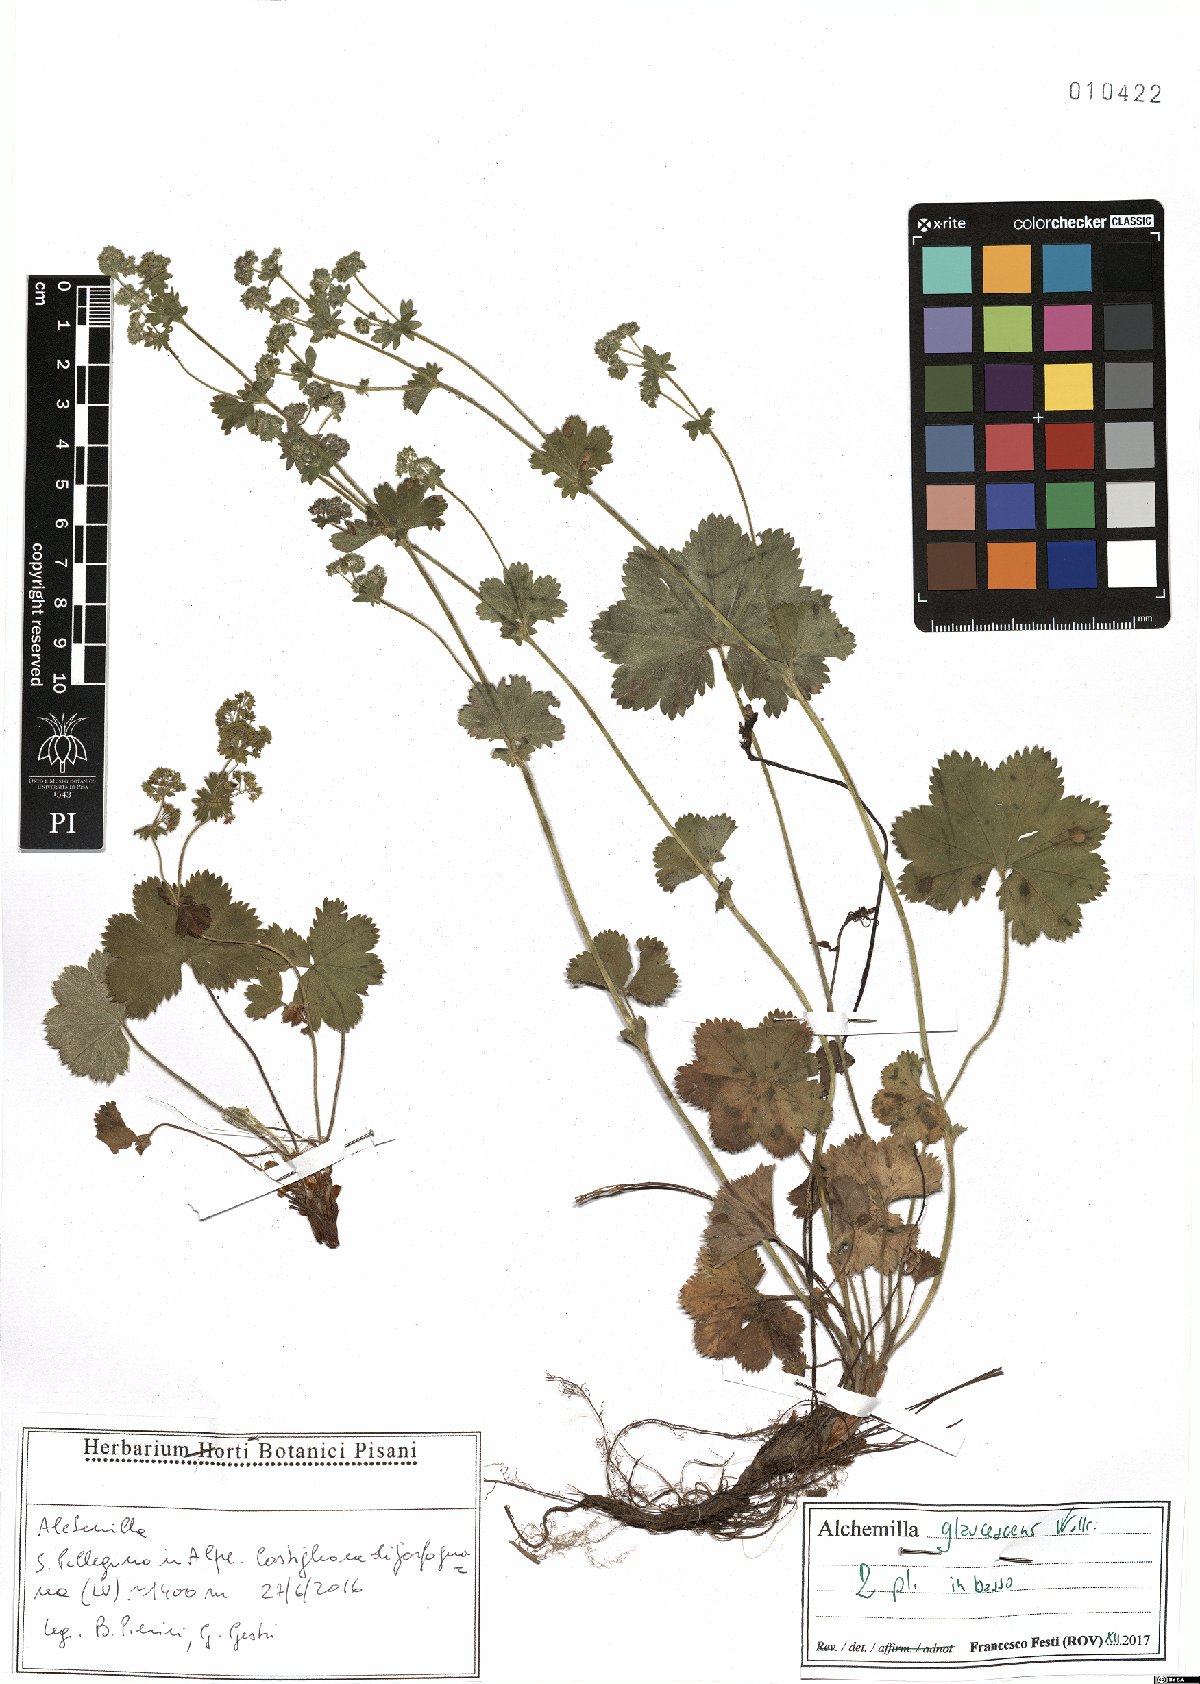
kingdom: Plantae
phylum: Tracheophyta
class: Magnoliopsida
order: Rosales
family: Rosaceae
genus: Alchemilla
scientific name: Alchemilla glaucescens
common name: Silky lady's mantle
